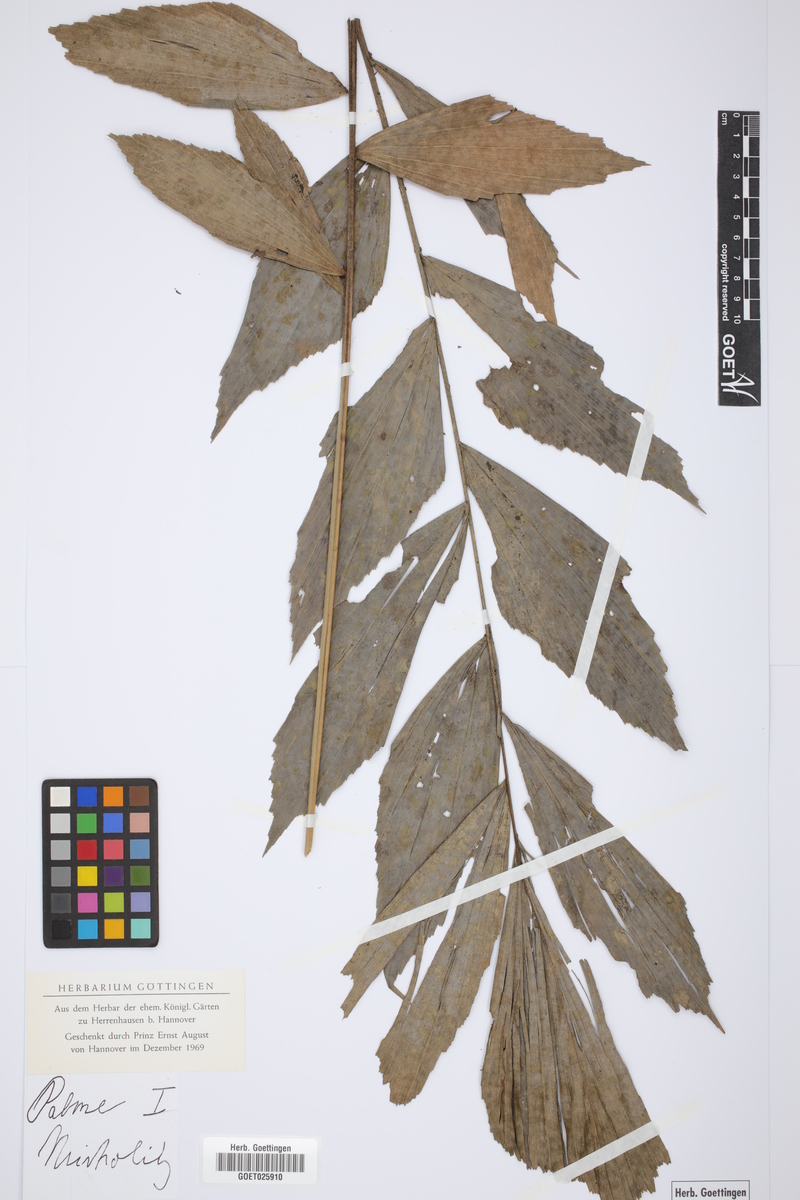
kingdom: Plantae
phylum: Tracheophyta
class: Liliopsida
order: Arecales
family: Arecaceae
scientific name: Arecaceae
